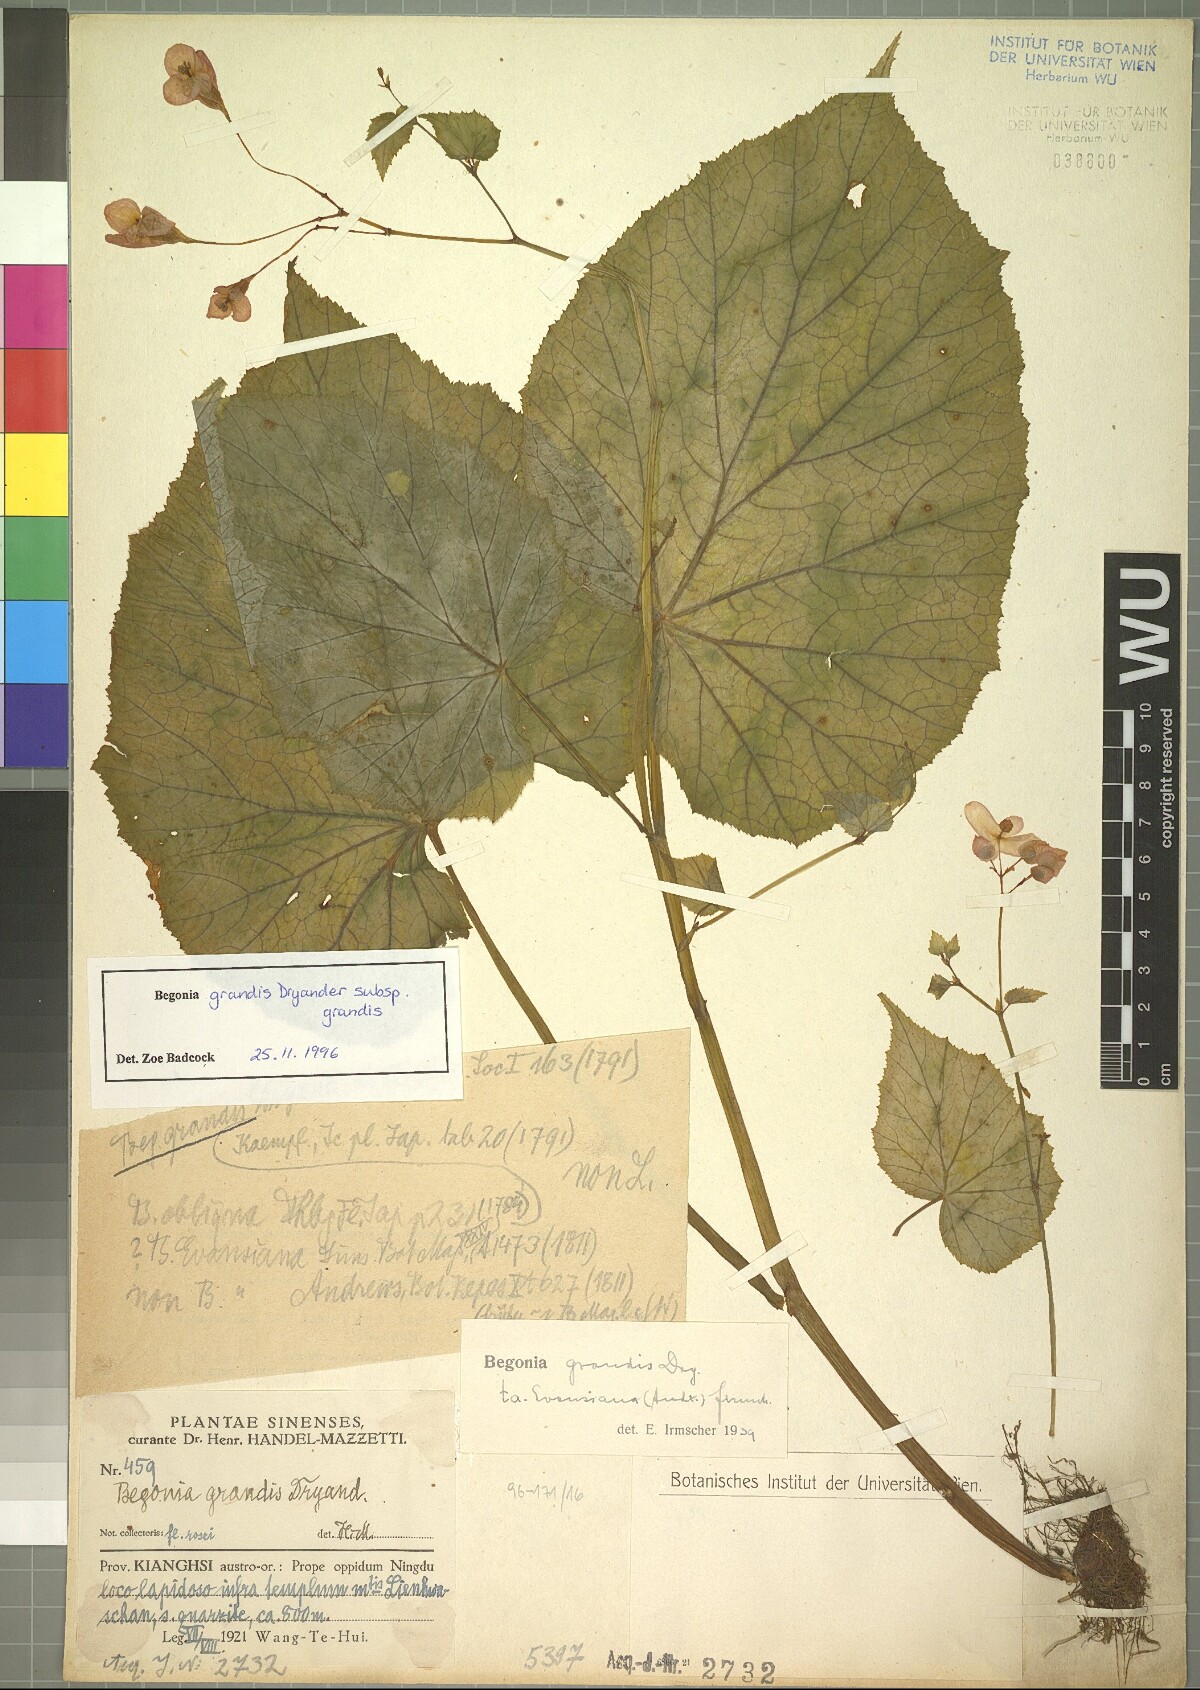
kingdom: Plantae
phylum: Tracheophyta
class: Magnoliopsida
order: Cucurbitales
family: Begoniaceae
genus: Begonia
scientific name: Begonia grandis
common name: Hardy begonia
